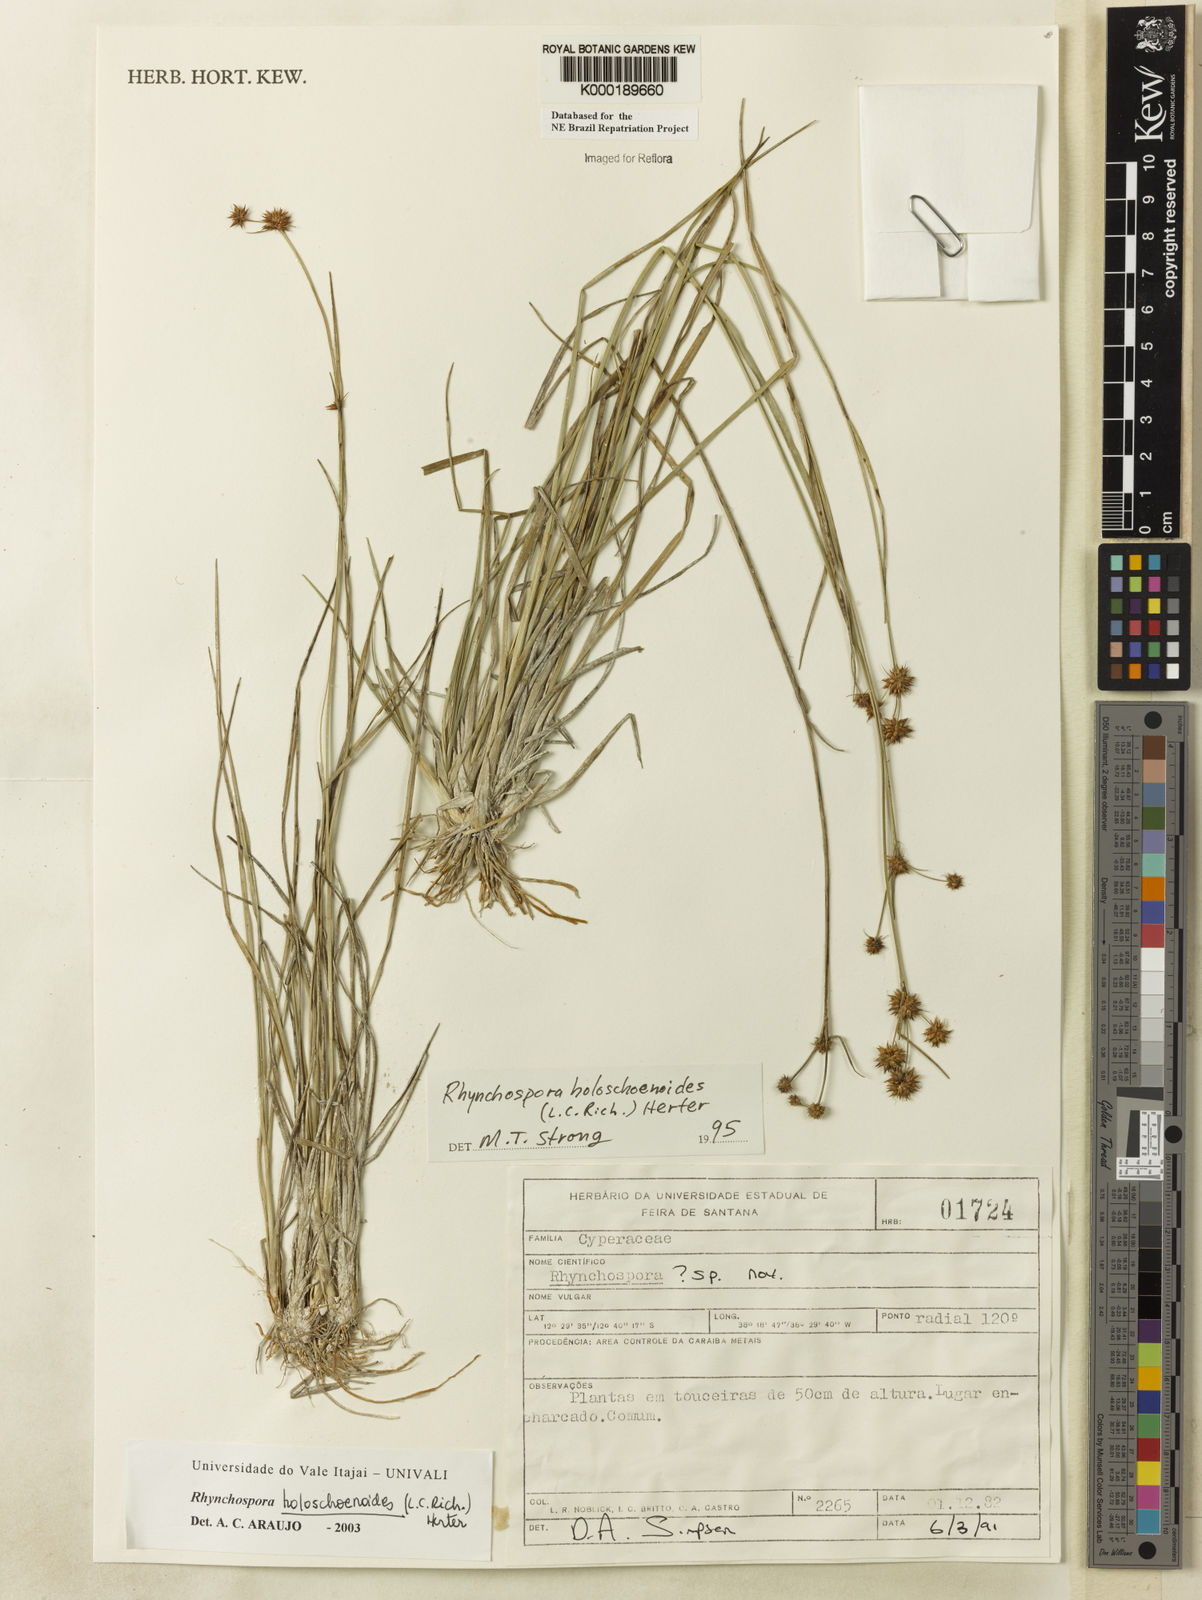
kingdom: Plantae
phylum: Tracheophyta
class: Liliopsida
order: Poales
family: Cyperaceae
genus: Rhynchospora
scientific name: Rhynchospora holoschoenoides
